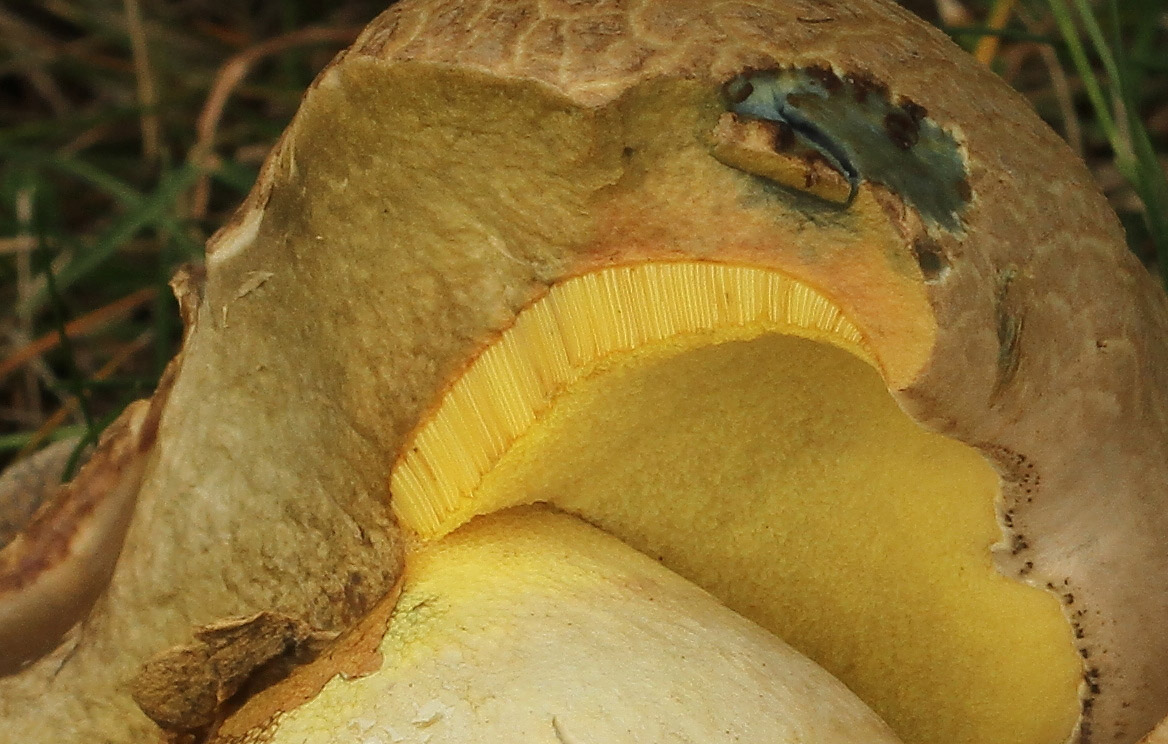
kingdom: Fungi
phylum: Basidiomycota
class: Agaricomycetes
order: Boletales
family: Boletaceae
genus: Caloboletus
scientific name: Caloboletus radicans
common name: rod-rørhat
